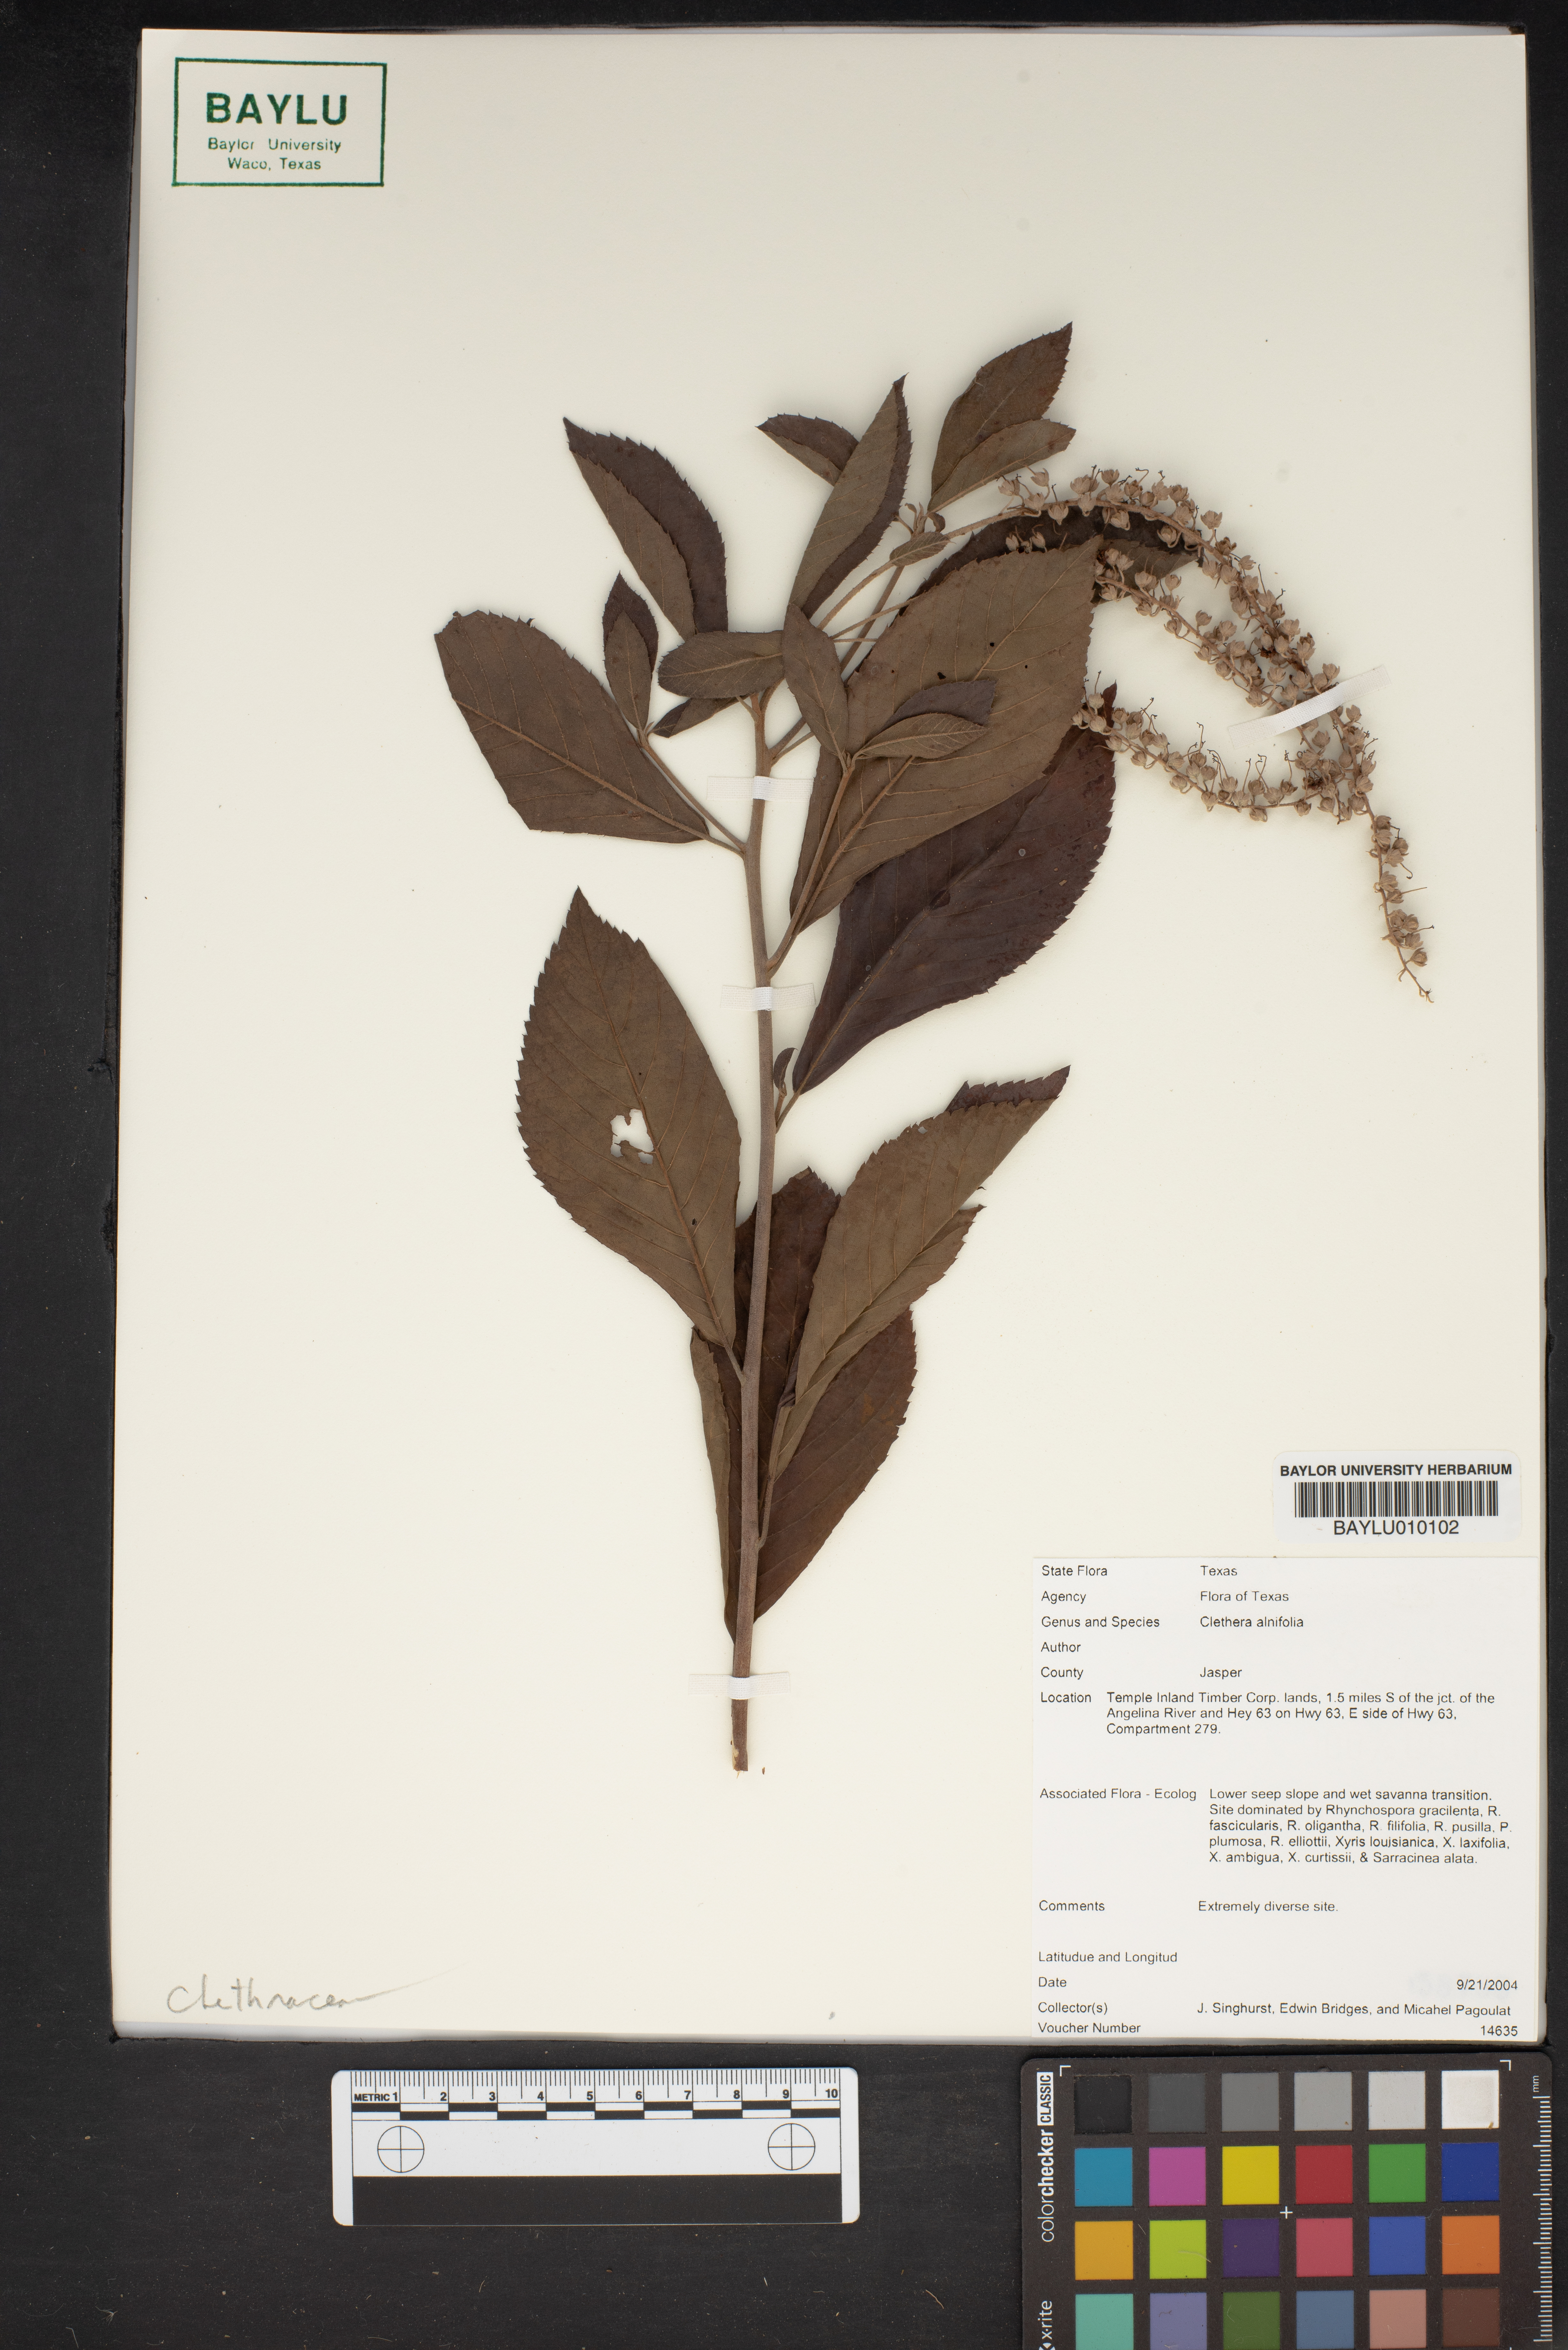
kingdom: Plantae
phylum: Tracheophyta
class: Magnoliopsida
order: Ericales
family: Clethraceae
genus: Clethra
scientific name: Clethra alnifolia
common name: Sweet pepperbush
